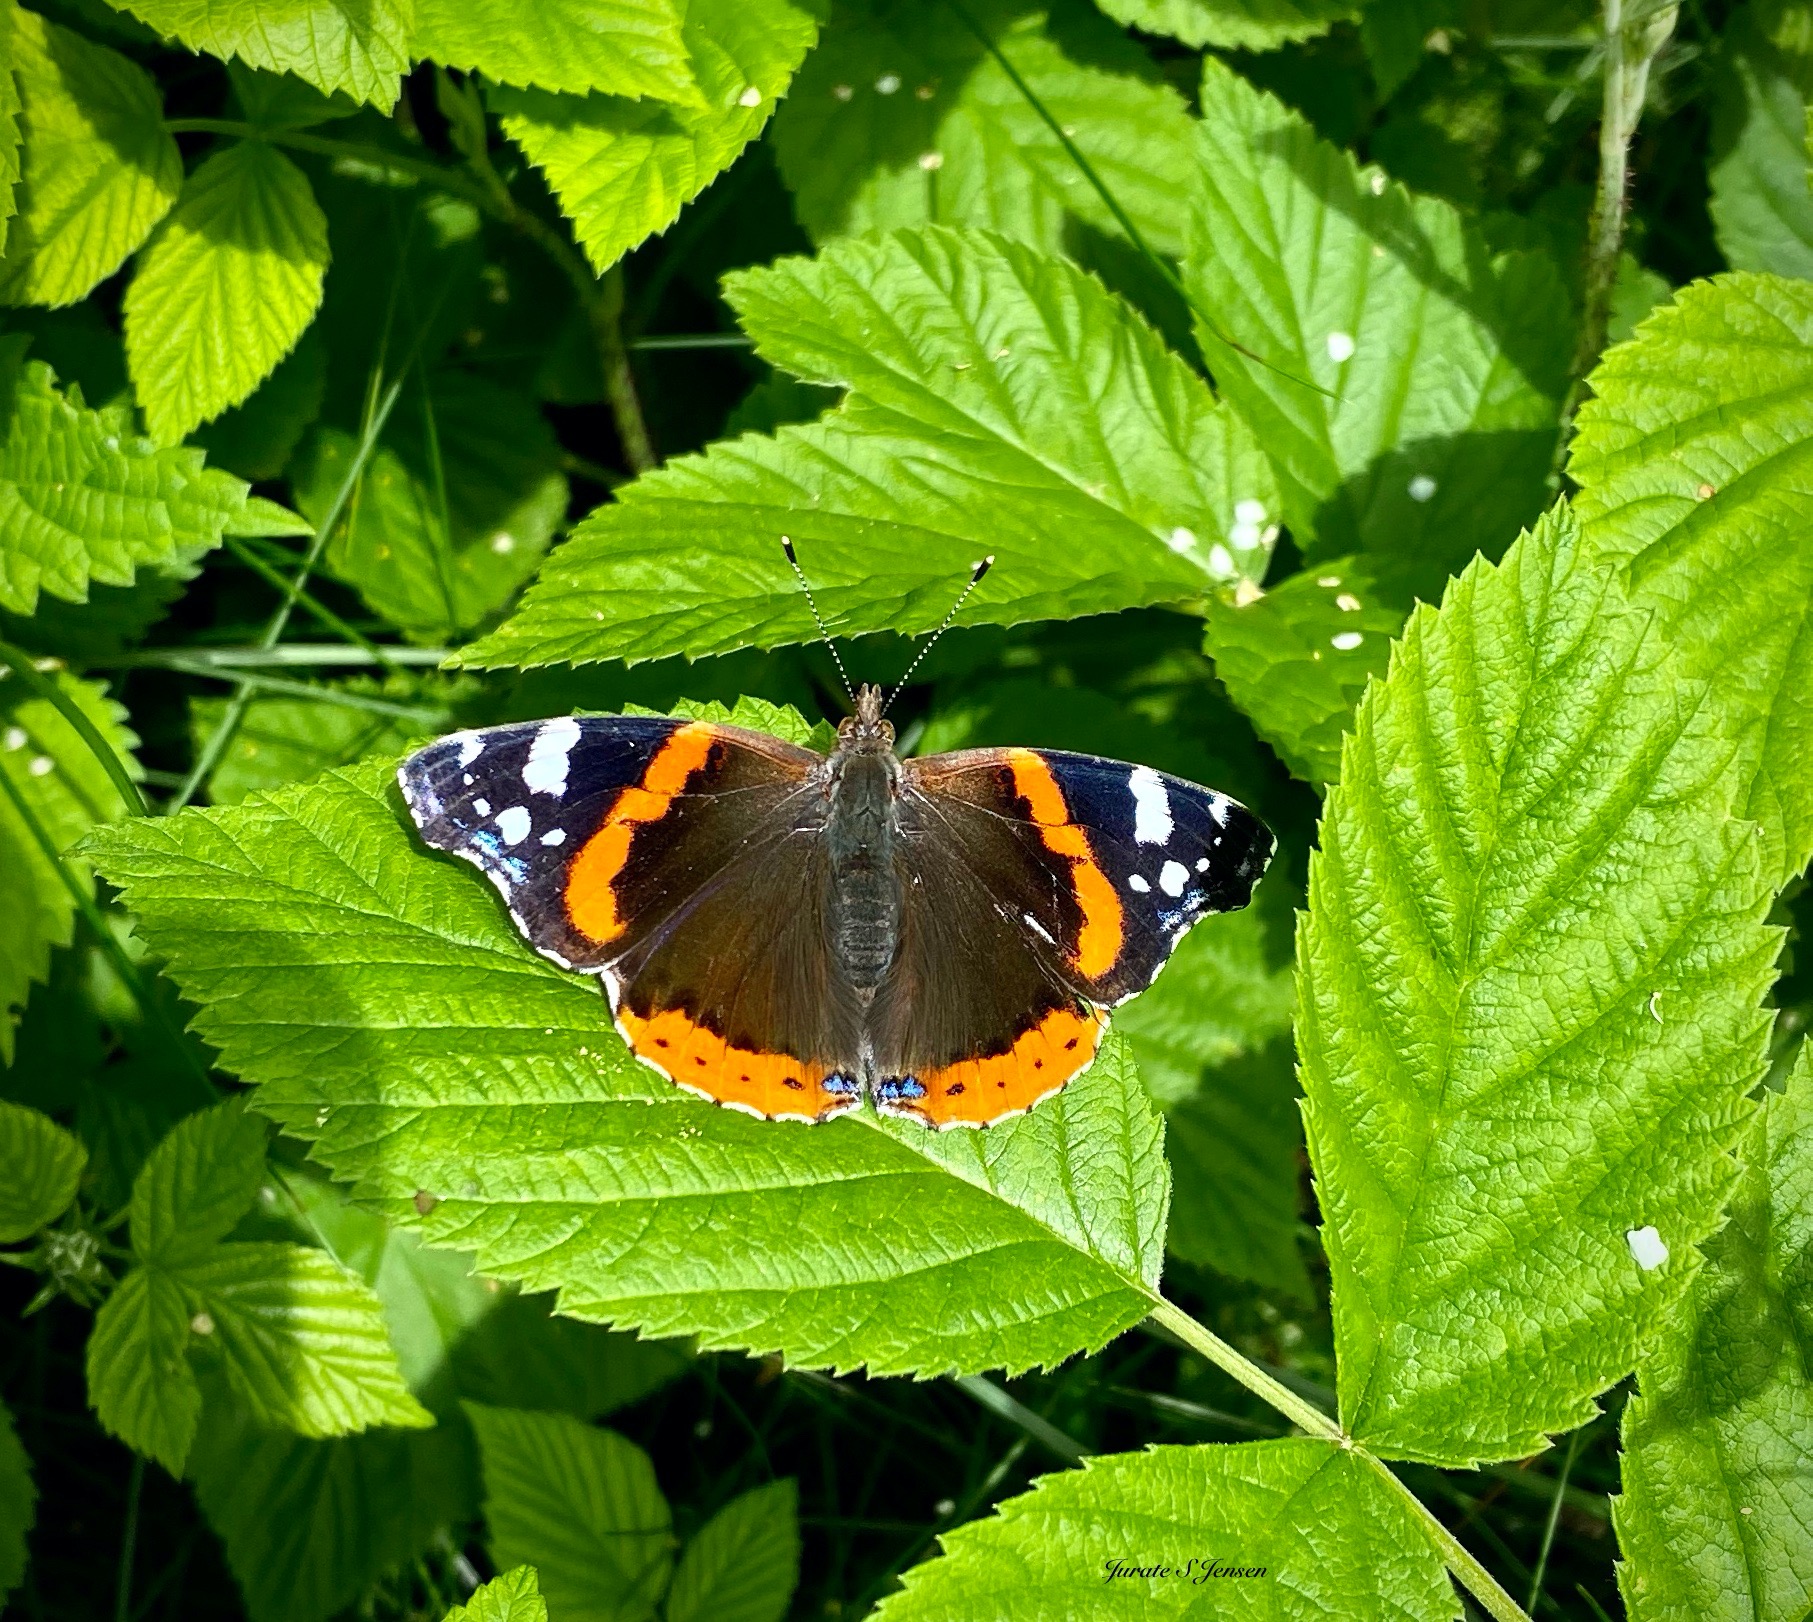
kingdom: Animalia
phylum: Arthropoda
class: Insecta
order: Lepidoptera
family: Nymphalidae
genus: Vanessa
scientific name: Vanessa atalanta
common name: Admiral
